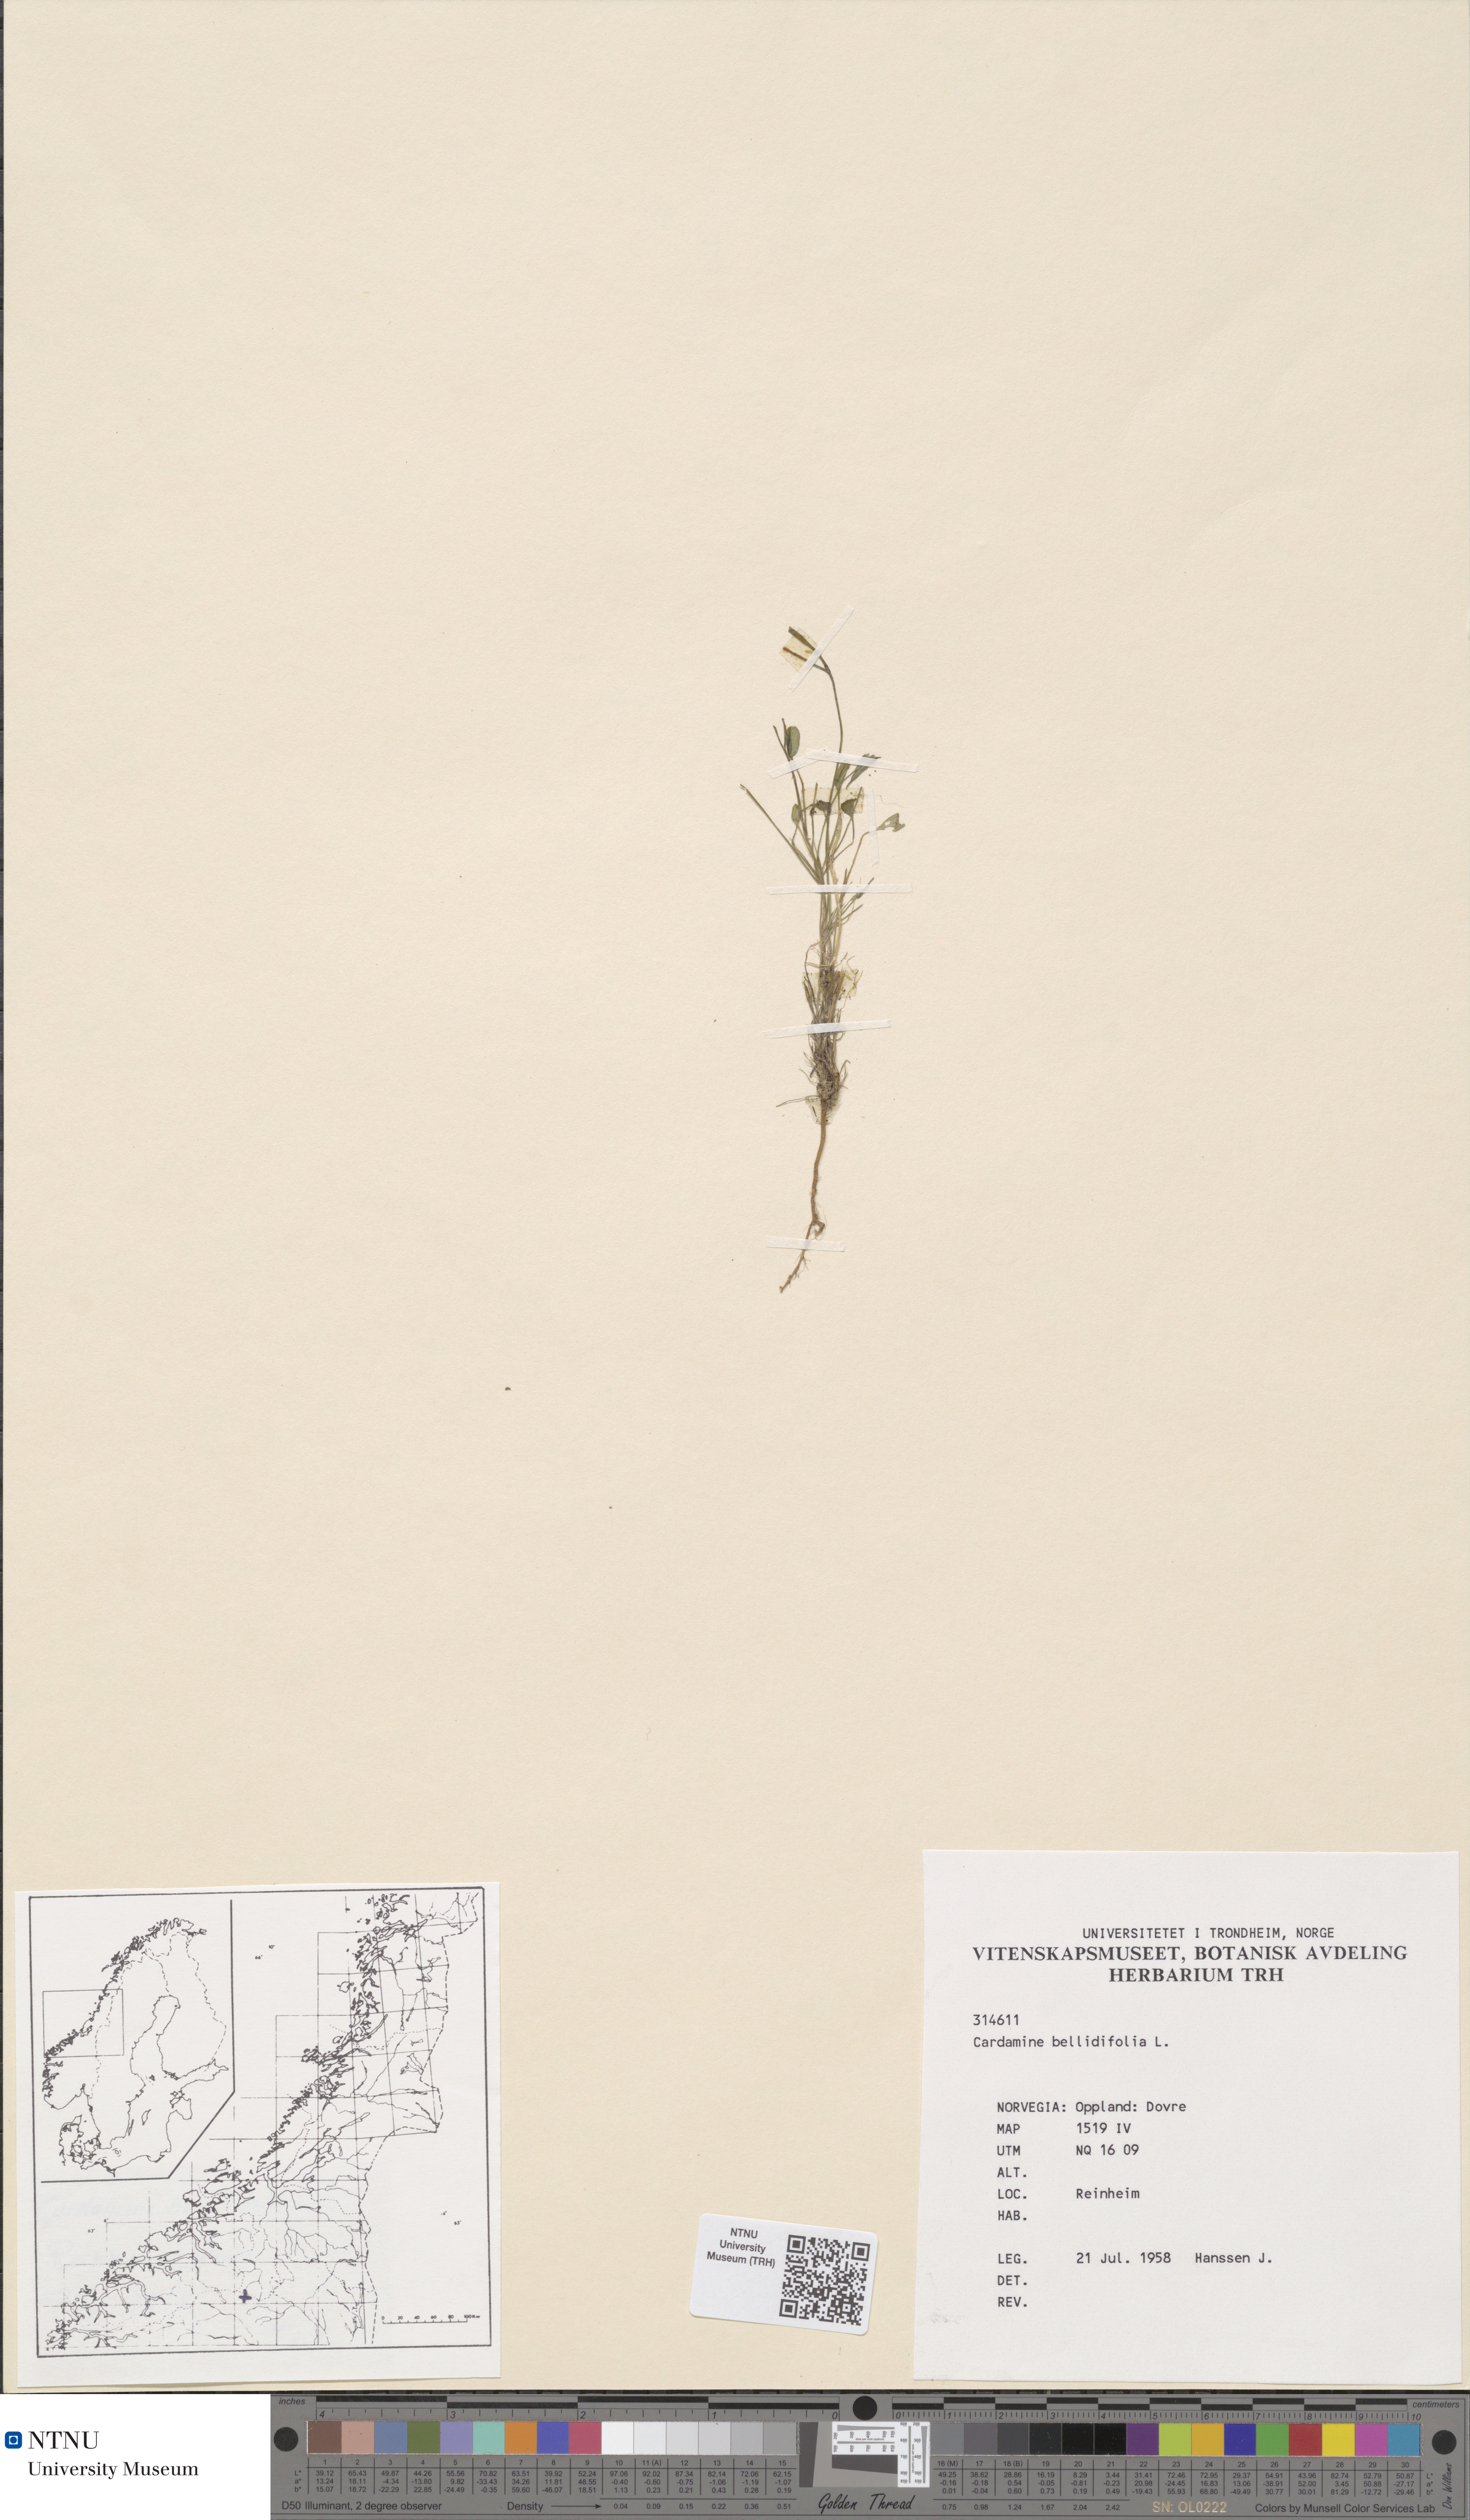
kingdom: Plantae
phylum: Tracheophyta
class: Magnoliopsida
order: Brassicales
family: Brassicaceae
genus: Cardamine
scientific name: Cardamine bellidifolia
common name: Alpine bittercress
